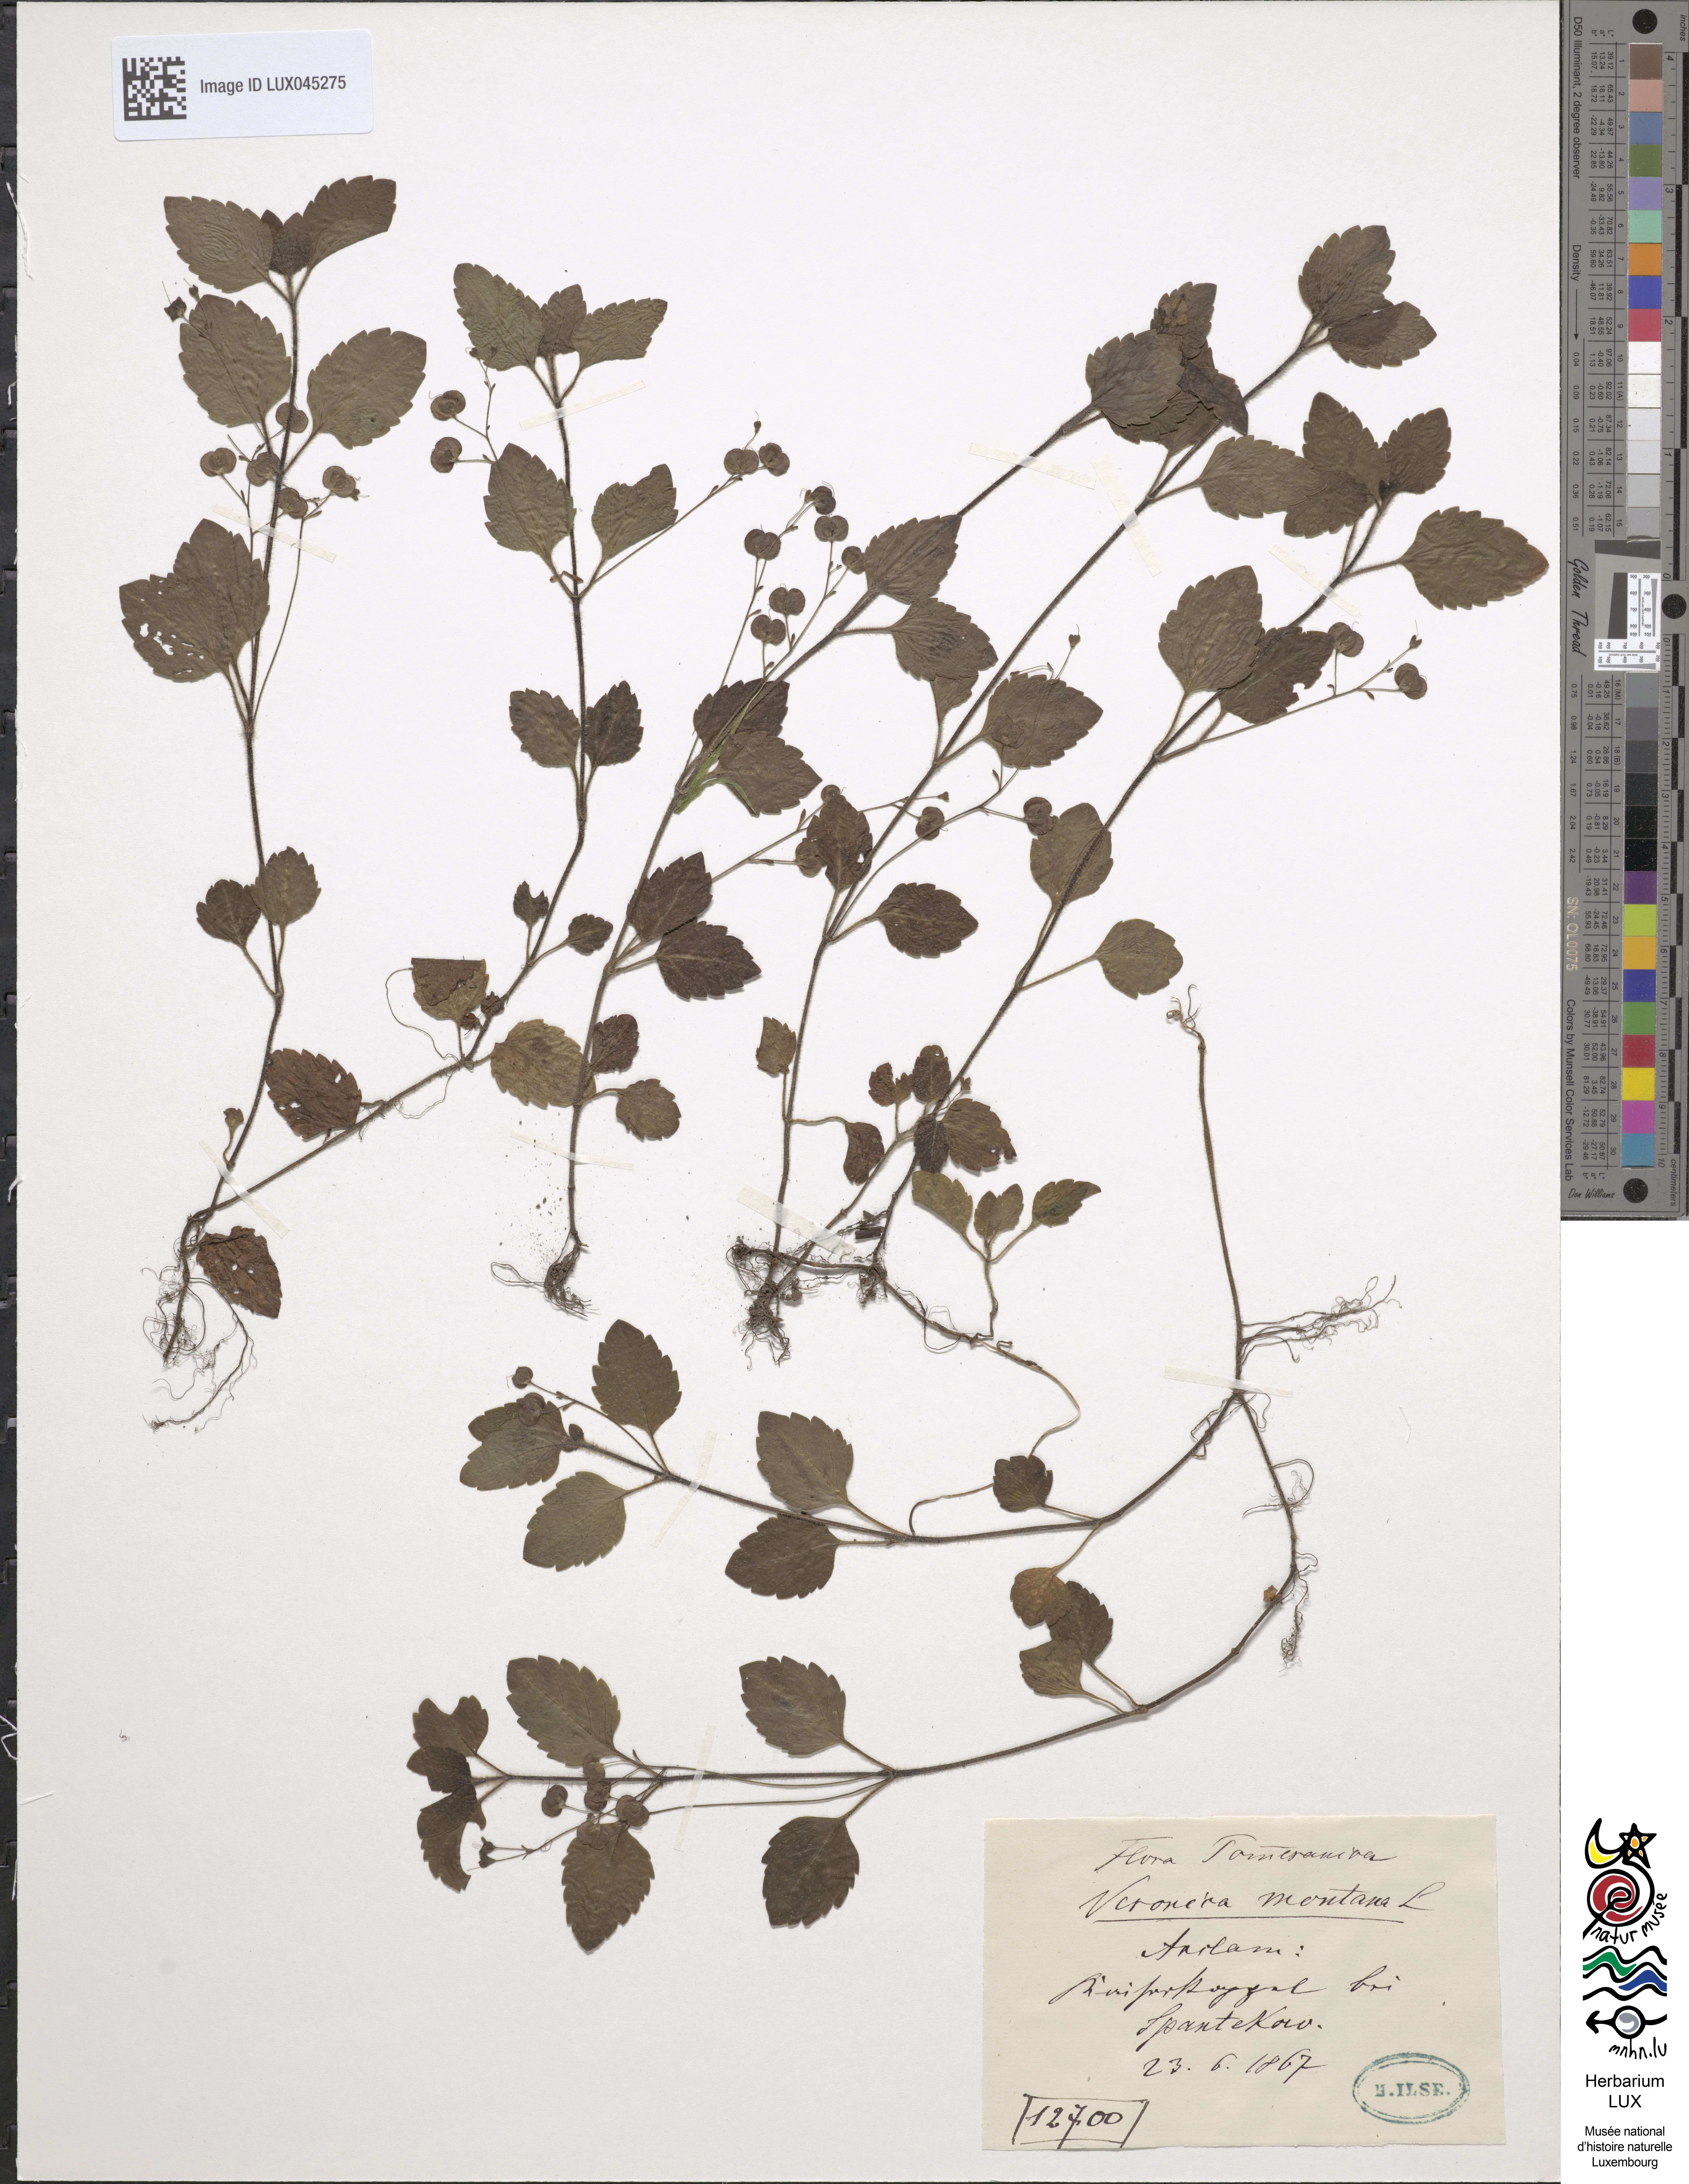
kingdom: Plantae
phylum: Tracheophyta
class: Magnoliopsida
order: Lamiales
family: Plantaginaceae
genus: Veronica
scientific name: Veronica montana
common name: Wood speedwell
